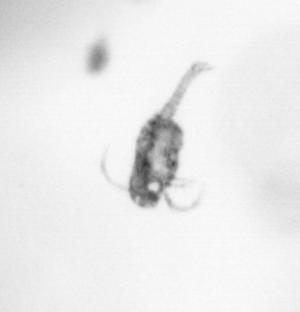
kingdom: Animalia
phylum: Arthropoda
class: Copepoda
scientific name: Copepoda
